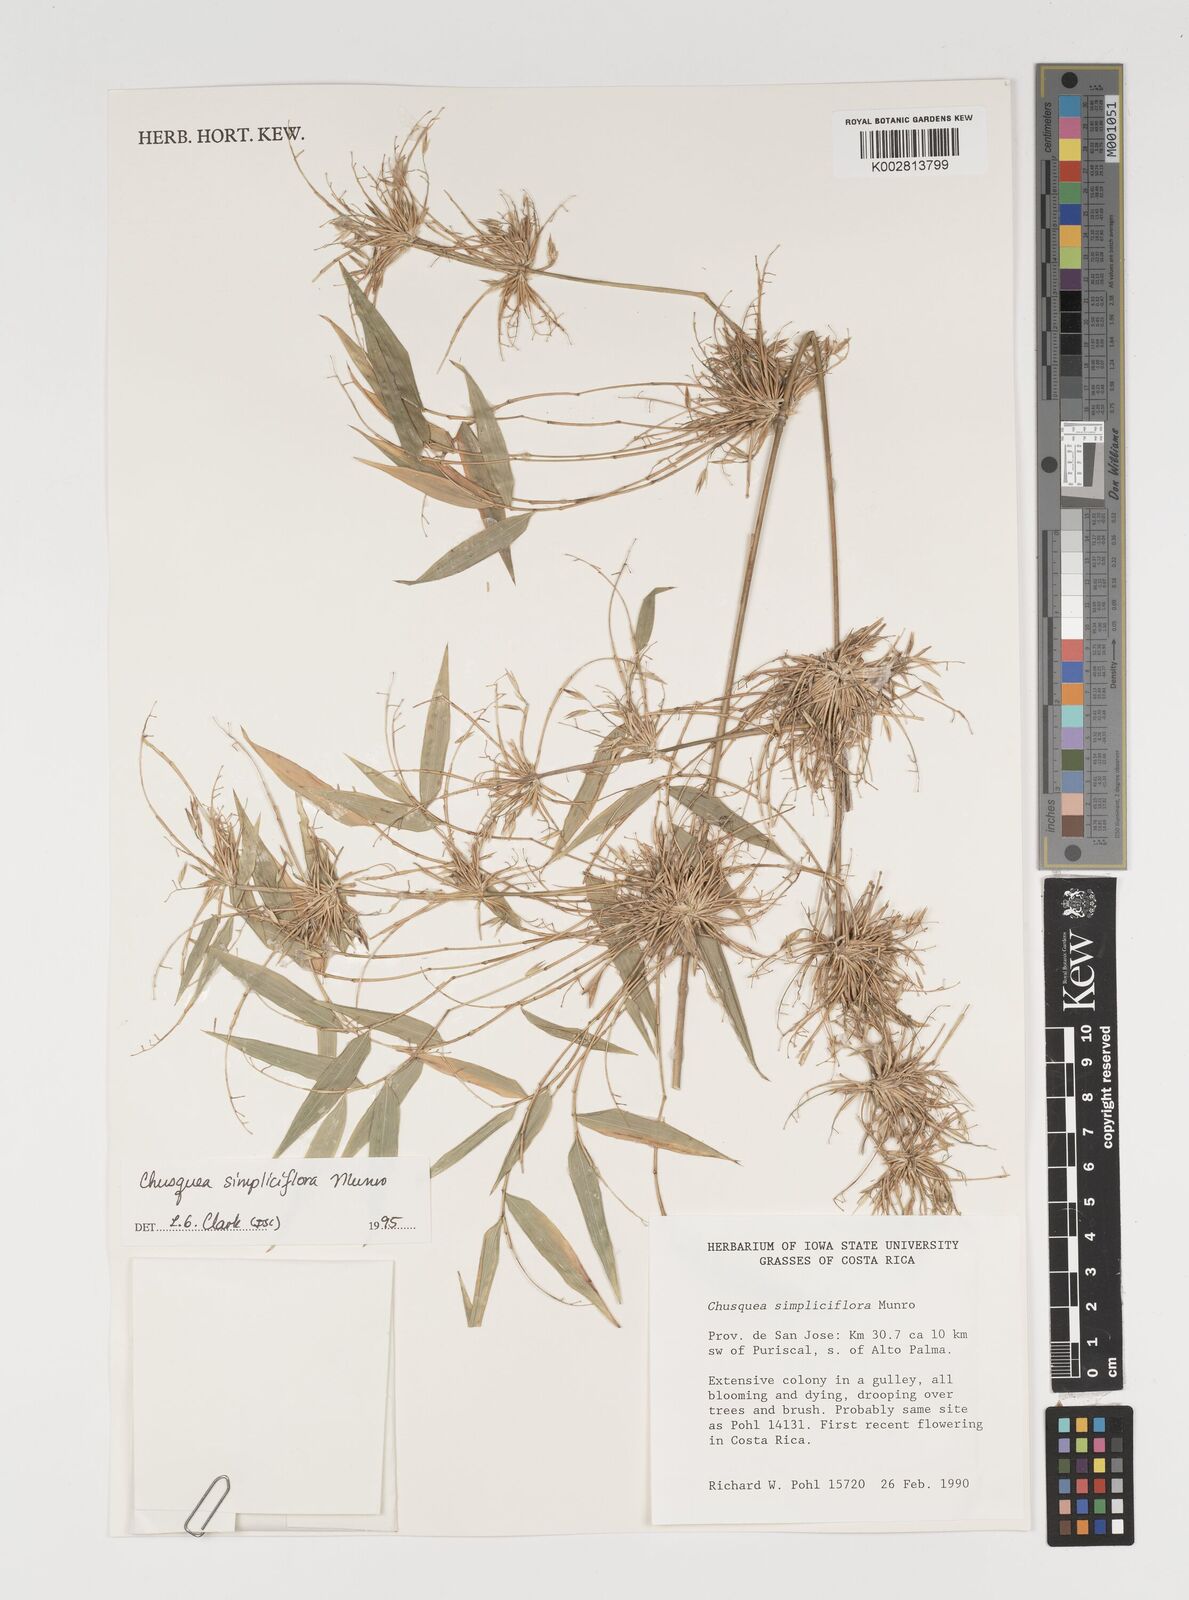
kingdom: Plantae
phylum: Tracheophyta
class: Liliopsida
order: Poales
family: Poaceae
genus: Chusquea
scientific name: Chusquea simpliciflora
